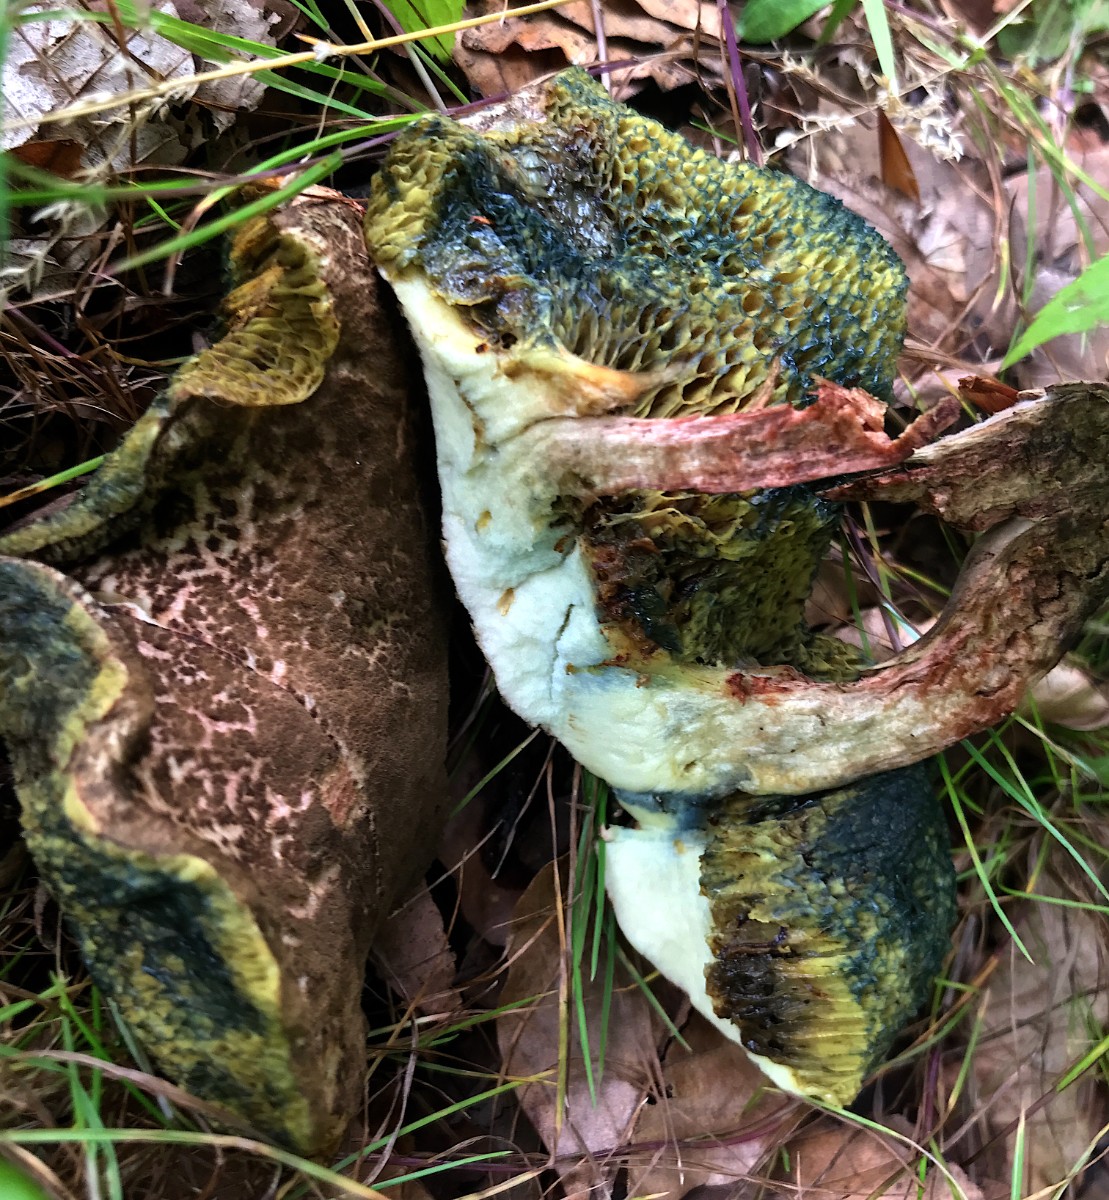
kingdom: Fungi
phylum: Basidiomycota
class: Agaricomycetes
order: Boletales
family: Boletaceae
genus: Xerocomellus
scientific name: Xerocomellus chrysenteron
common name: rødsprukken rørhat
